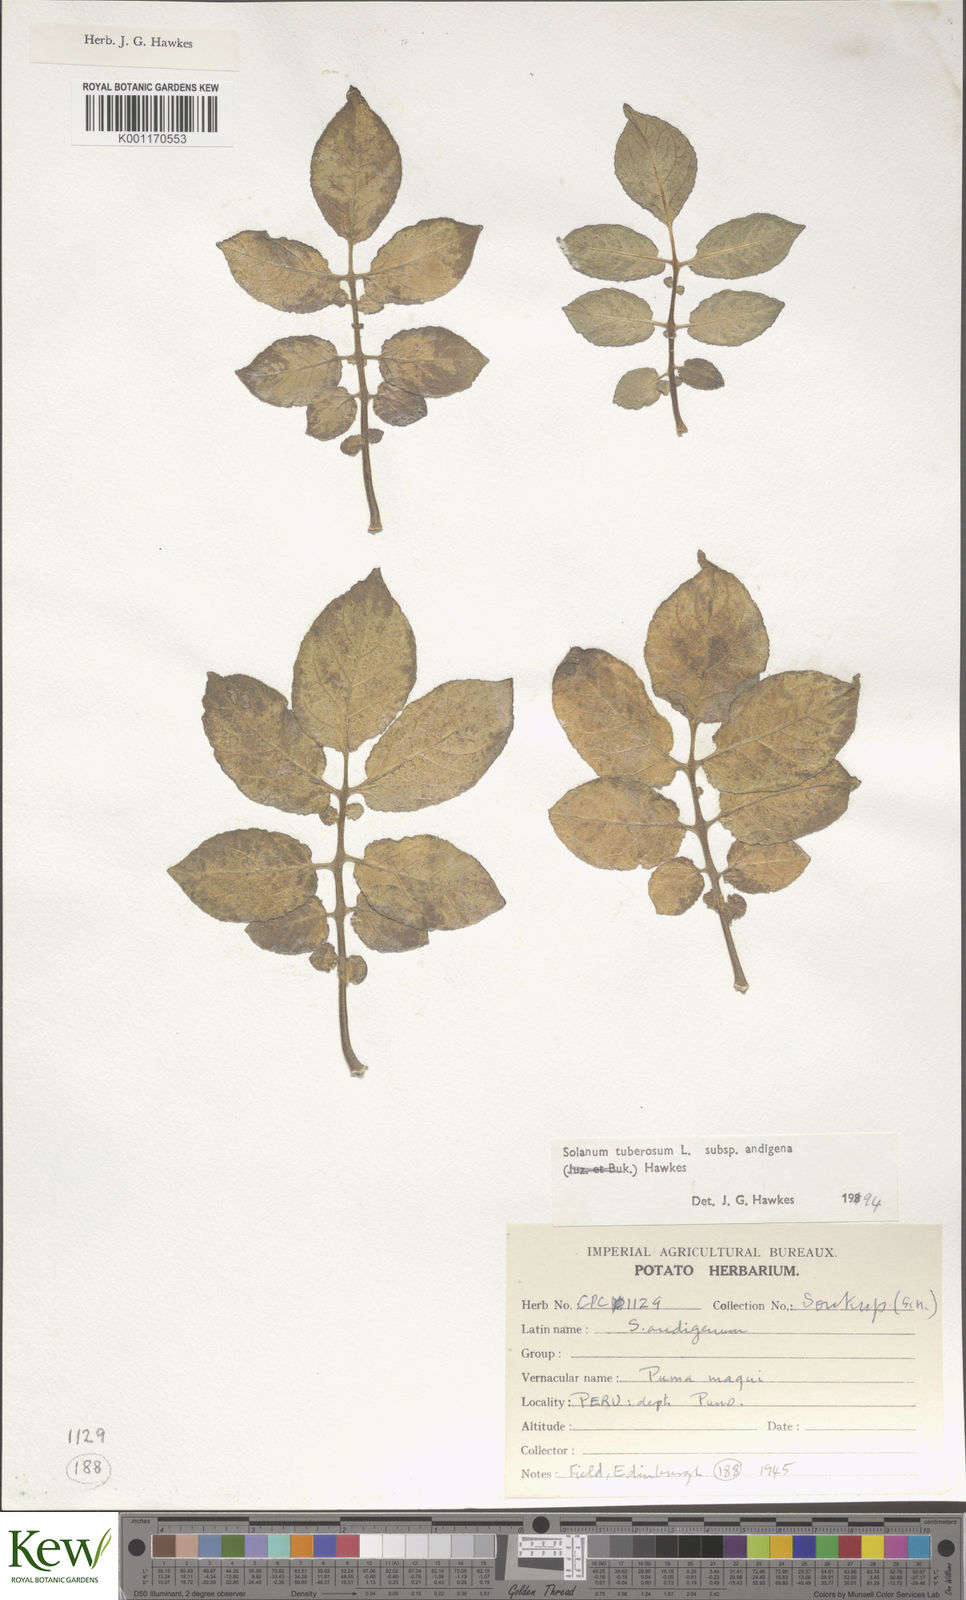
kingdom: Plantae
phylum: Tracheophyta
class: Magnoliopsida
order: Solanales
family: Solanaceae
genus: Solanum
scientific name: Solanum tuberosum
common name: Potato
